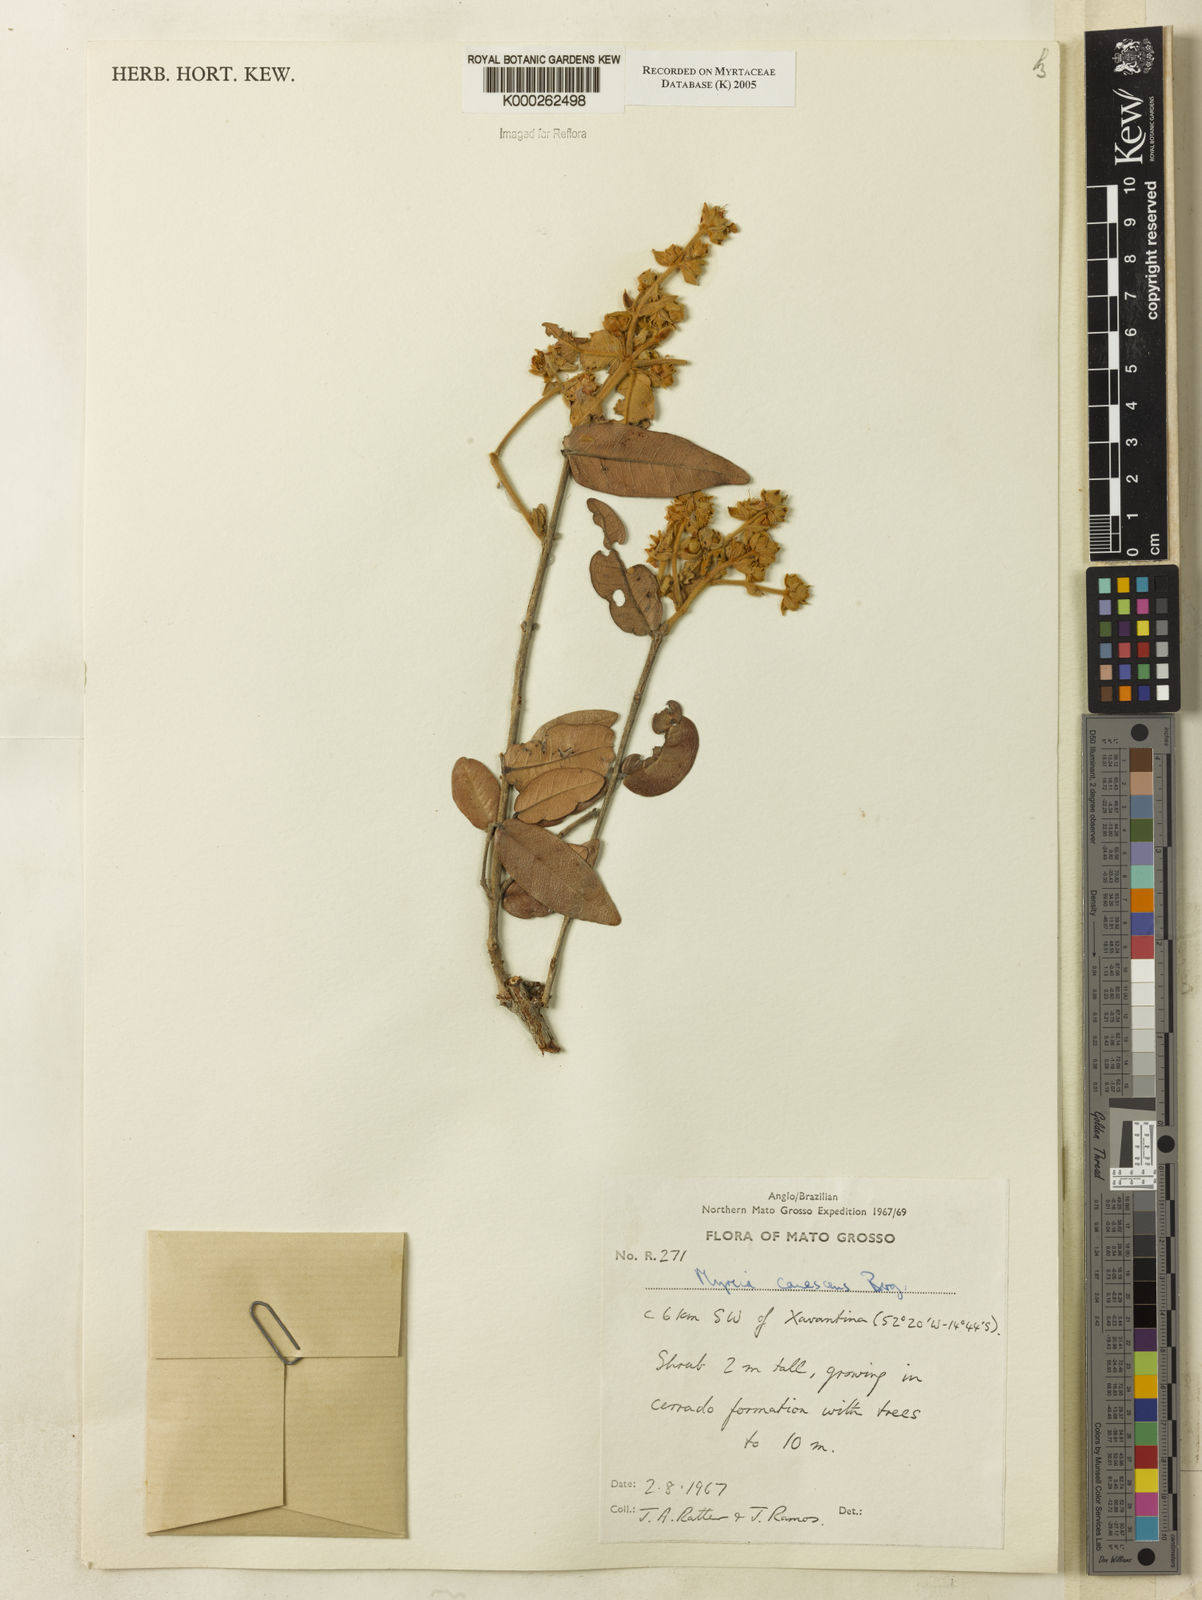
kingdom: Plantae
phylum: Tracheophyta
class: Magnoliopsida
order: Myrtales
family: Myrtaceae
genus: Myrcia
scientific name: Myrcia canescens
